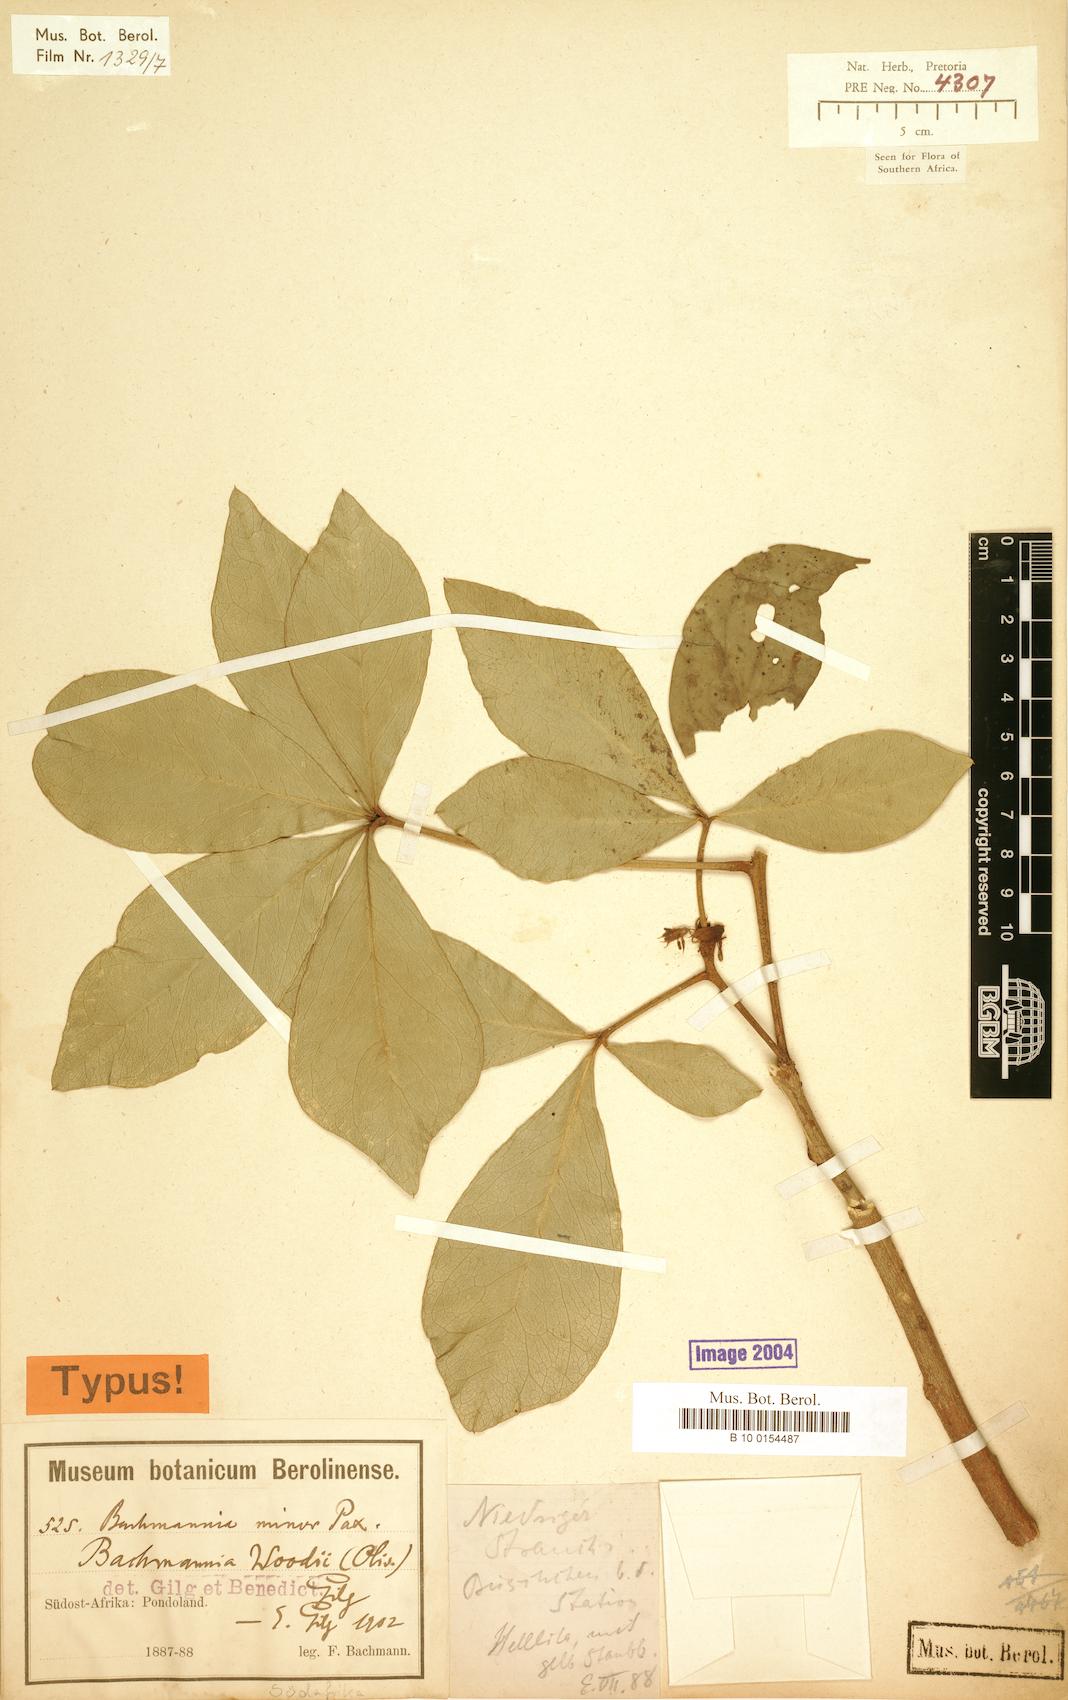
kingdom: Plantae
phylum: Tracheophyta
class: Magnoliopsida
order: Brassicales
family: Capparaceae
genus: Bachmannia
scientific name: Bachmannia woodii
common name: Four-finger bush
